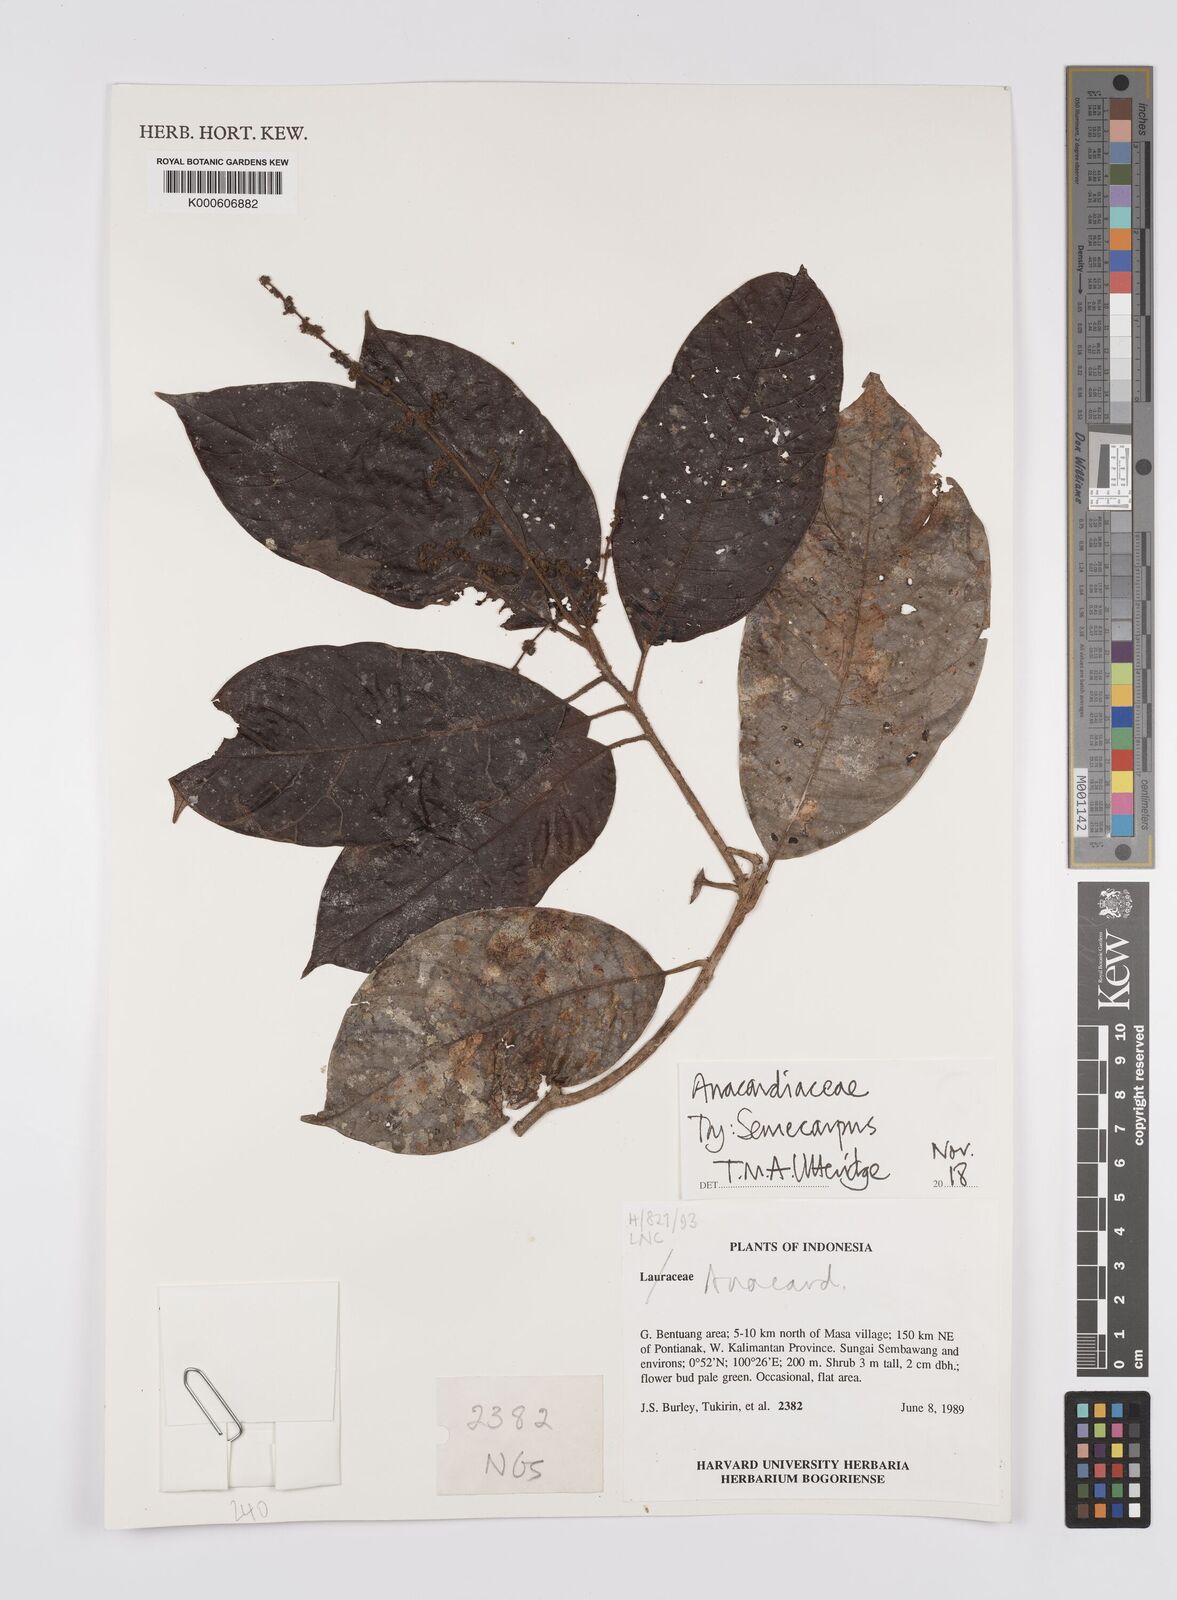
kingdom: Plantae
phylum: Tracheophyta
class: Magnoliopsida
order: Sapindales
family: Anacardiaceae
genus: Semecarpus
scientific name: Semecarpus
